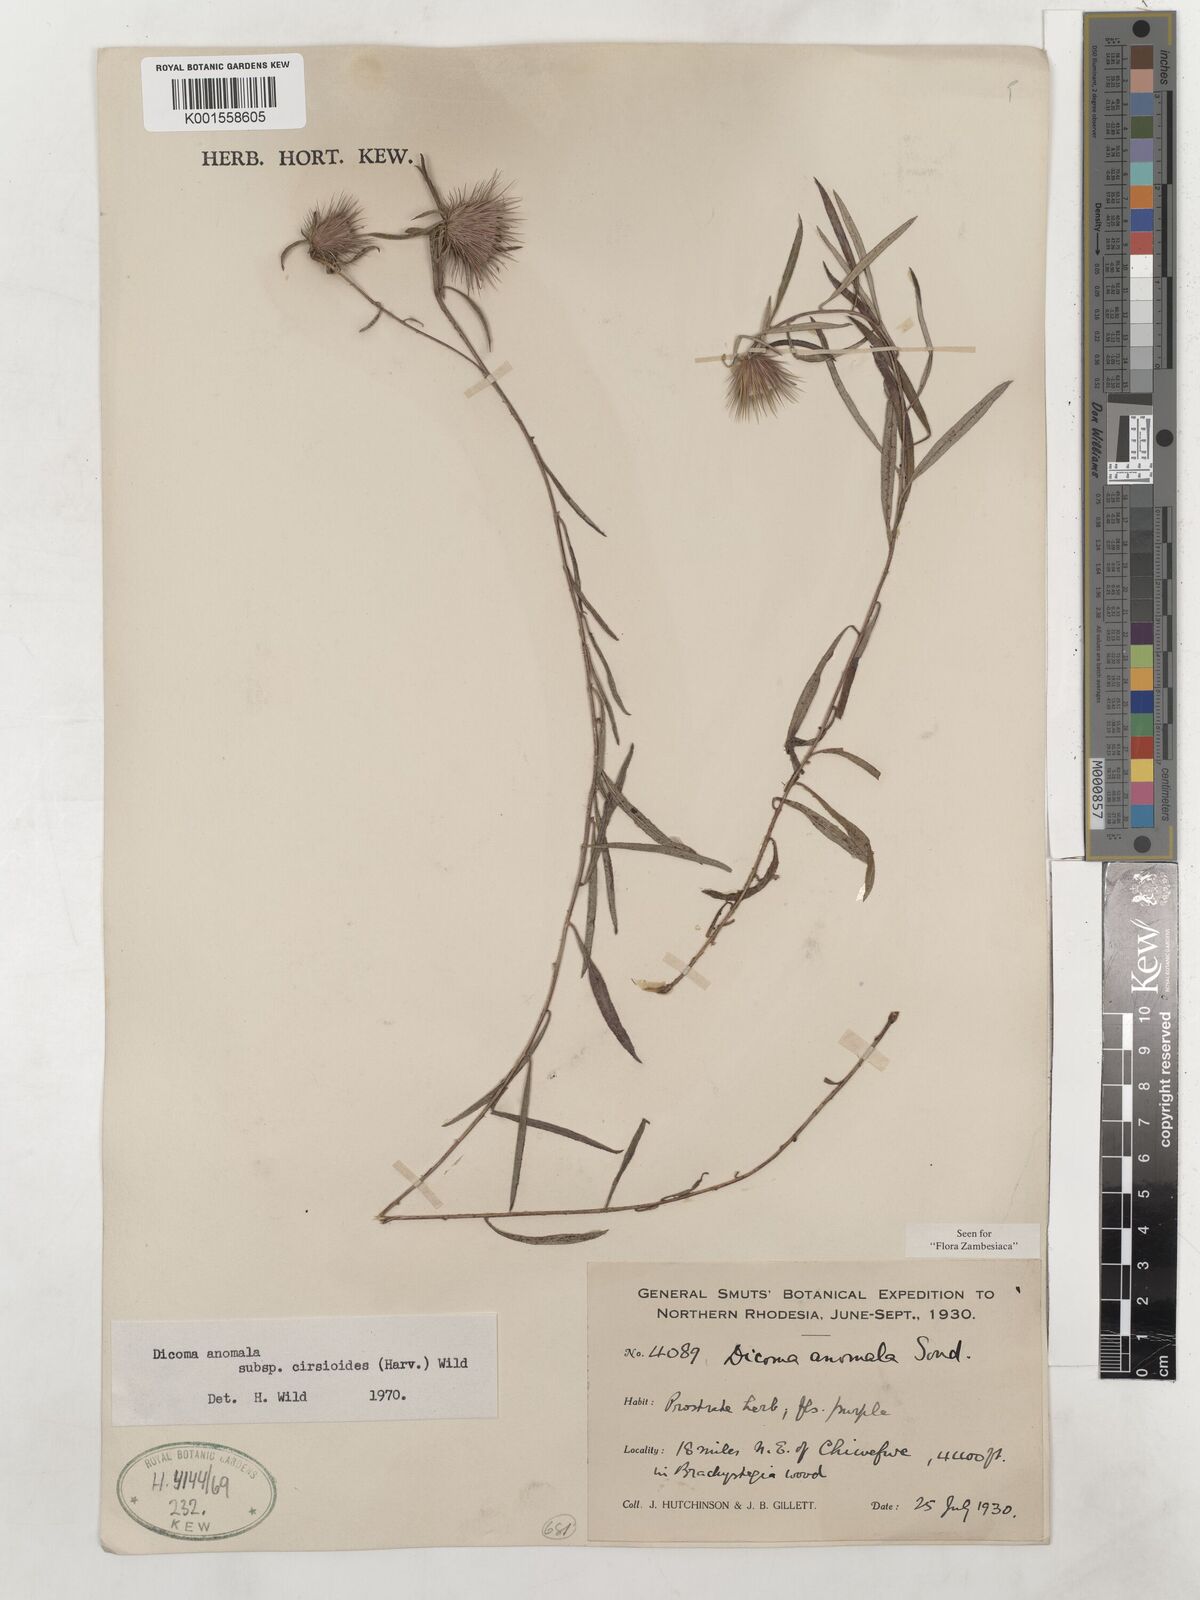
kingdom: Plantae
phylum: Tracheophyta
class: Magnoliopsida
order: Asterales
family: Asteraceae
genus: Dicoma
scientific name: Dicoma anomala
